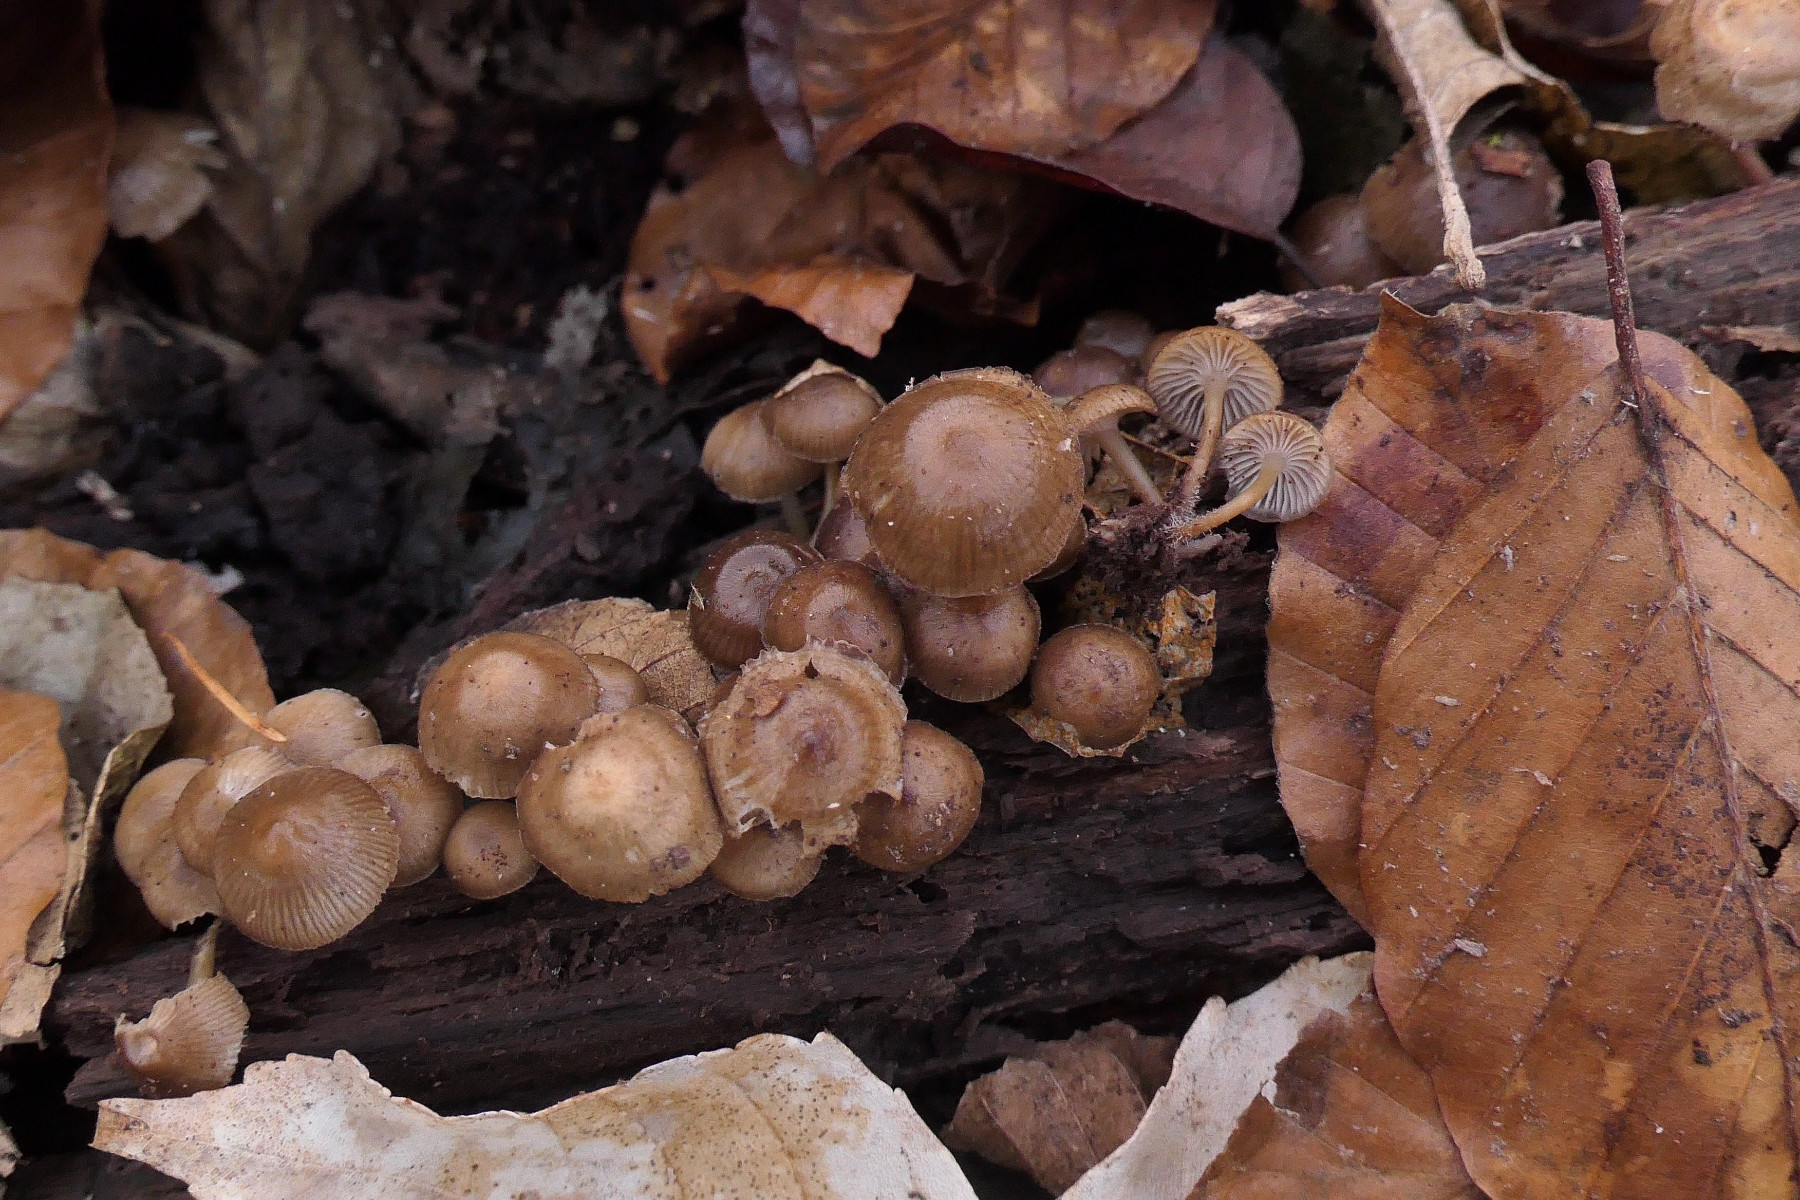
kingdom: Fungi
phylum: Basidiomycota
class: Agaricomycetes
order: Agaricales
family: Mycenaceae
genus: Mycena
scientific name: Mycena tintinnabulum
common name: vinter-huesvamp
